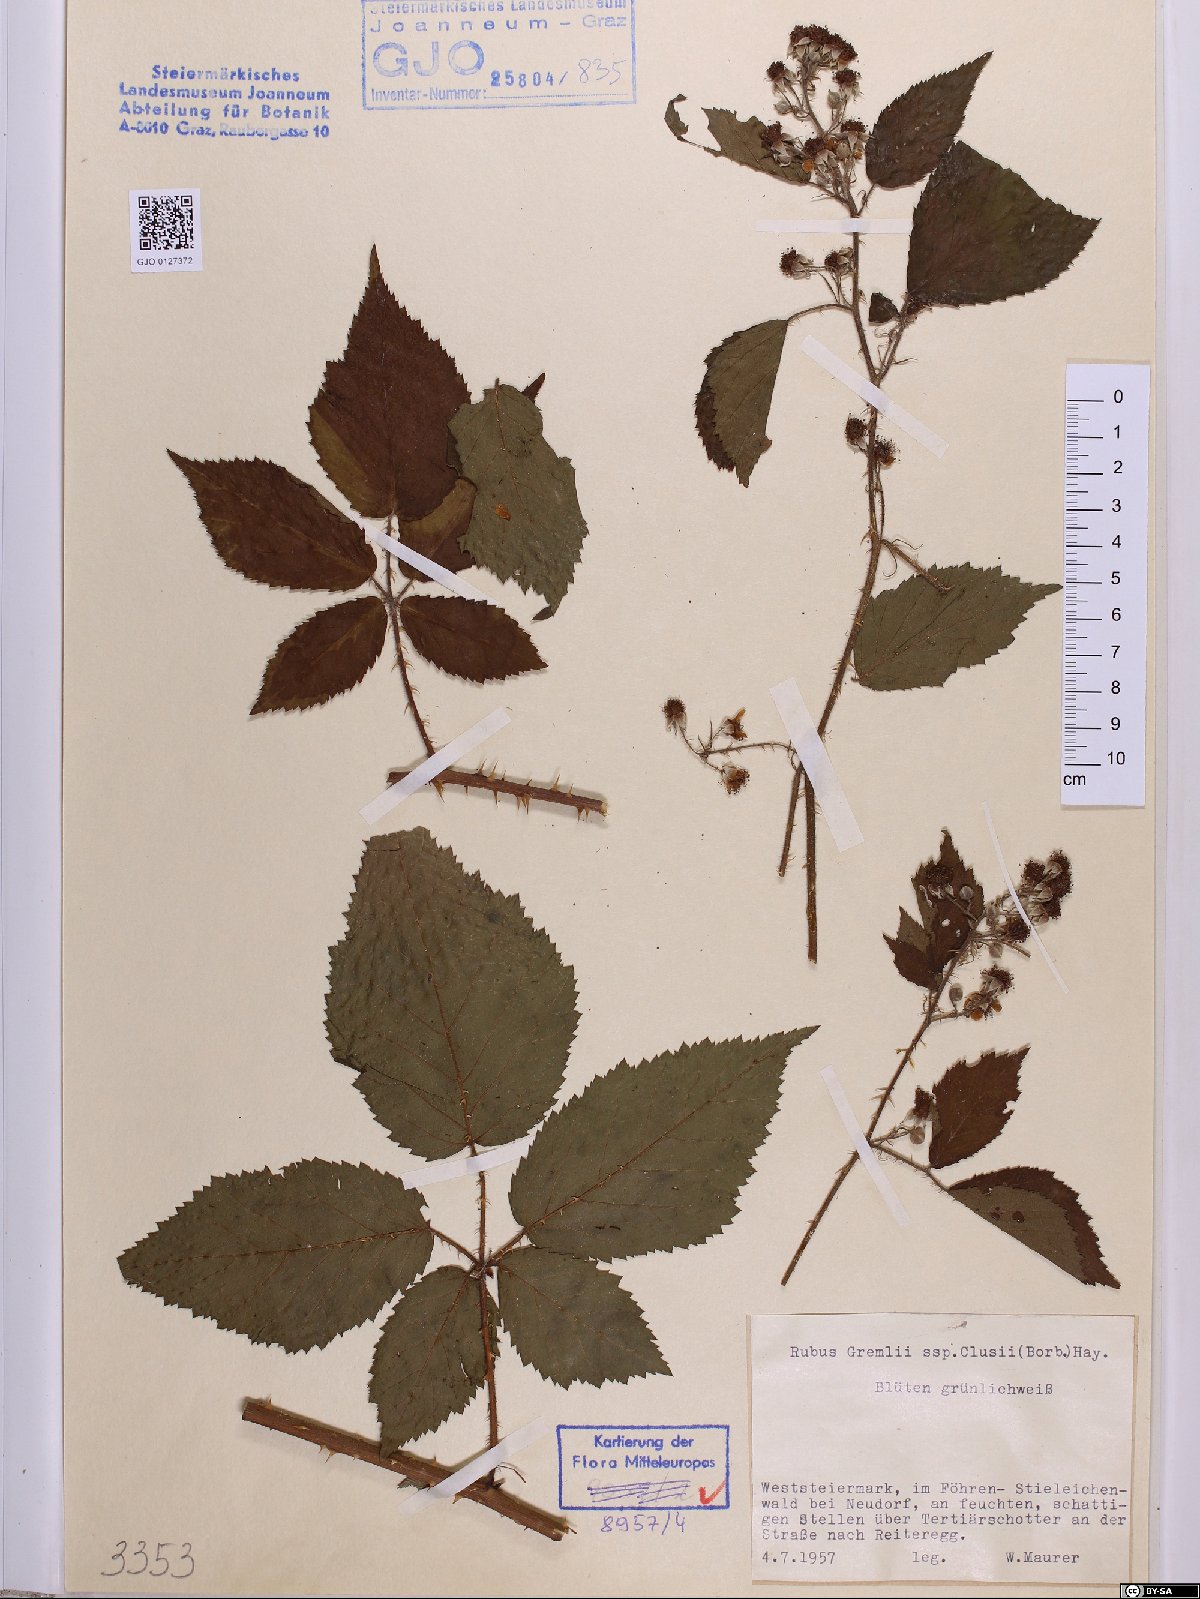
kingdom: Plantae
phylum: Tracheophyta
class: Magnoliopsida
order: Rosales
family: Rosaceae
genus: Rubus
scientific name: Rubus clusii
